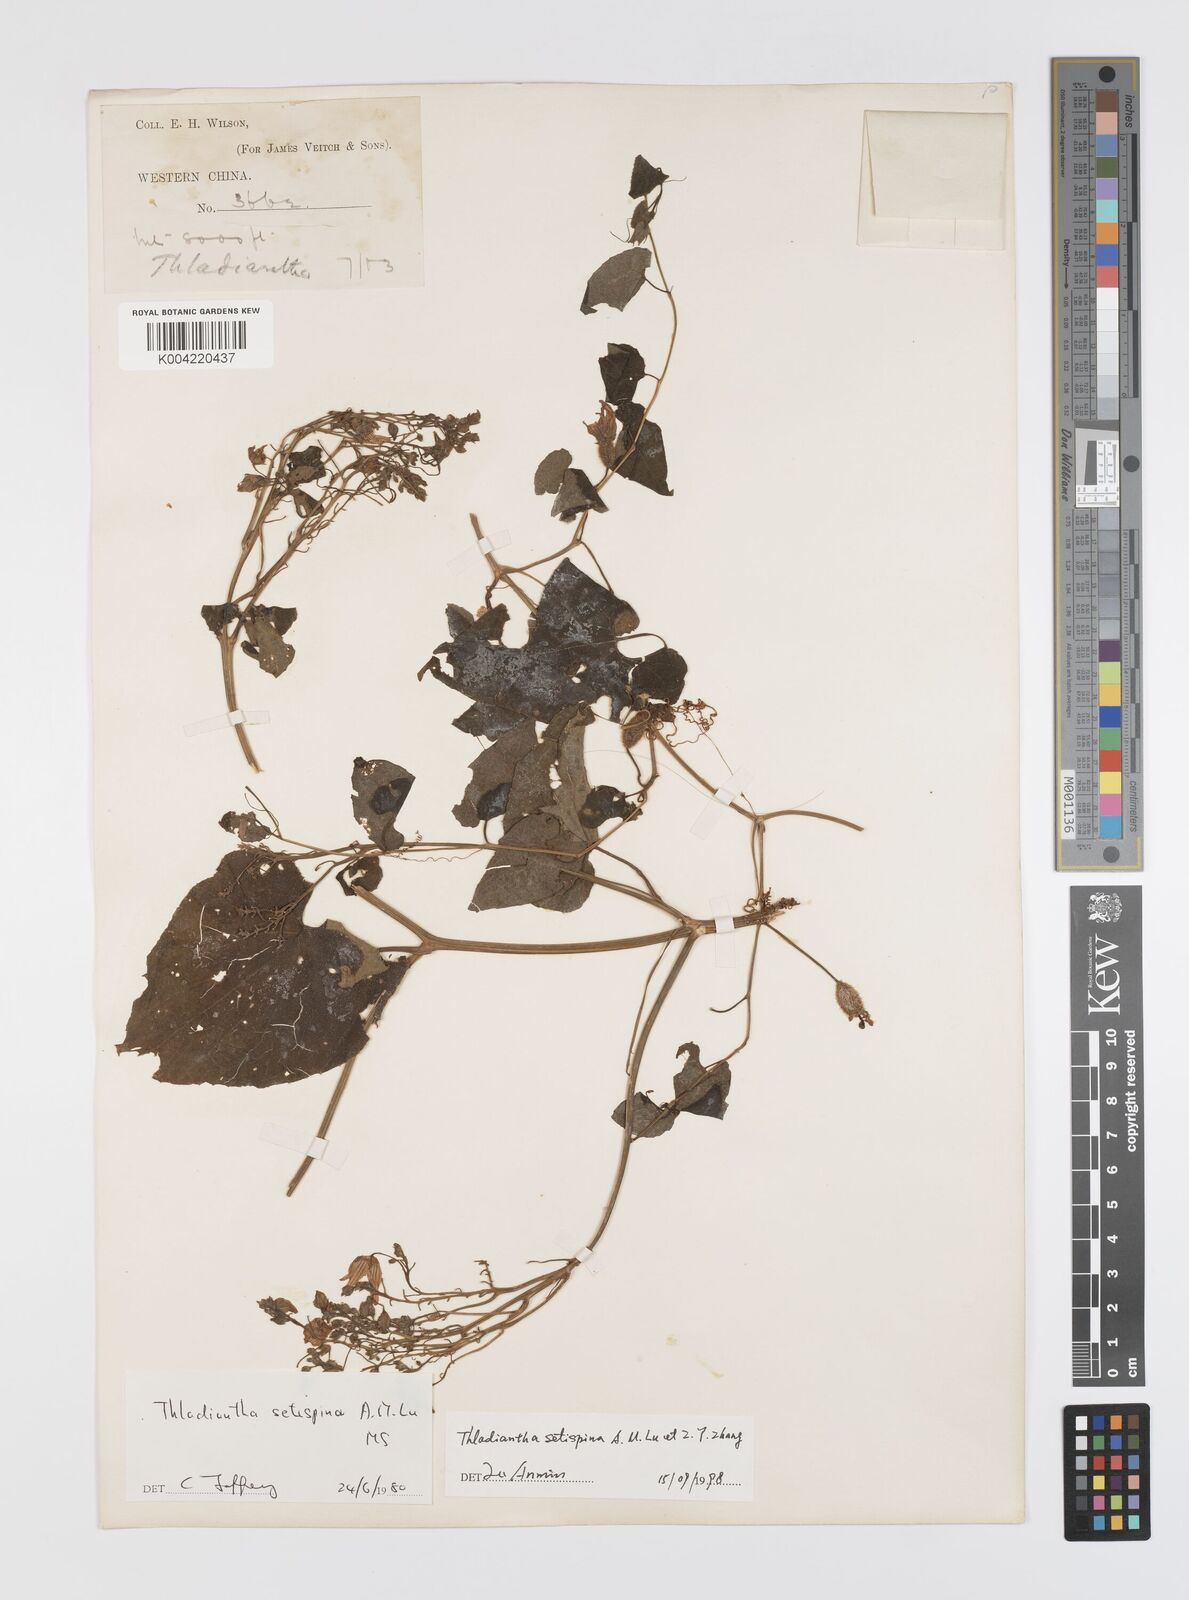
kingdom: Plantae
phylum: Tracheophyta
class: Magnoliopsida
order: Cucurbitales
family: Cucurbitaceae
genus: Thladiantha
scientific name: Thladiantha setispina
